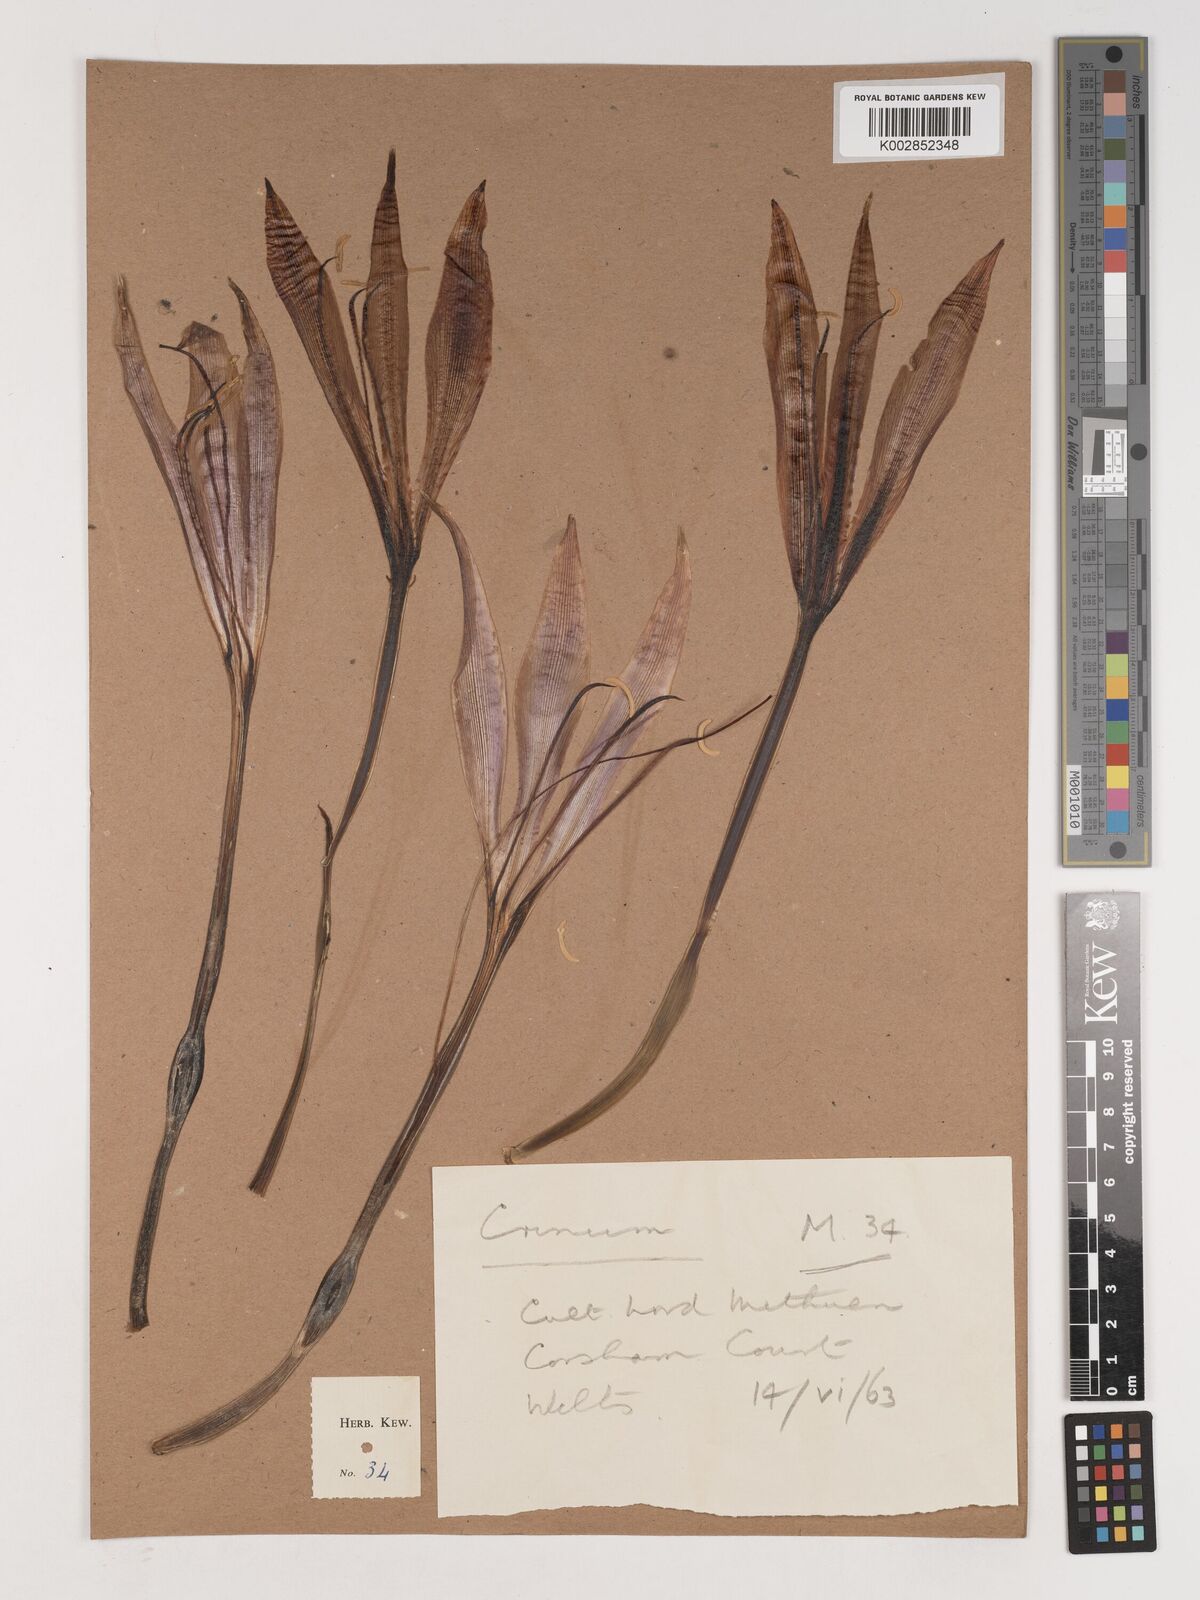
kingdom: Plantae
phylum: Tracheophyta
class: Liliopsida
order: Asparagales
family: Amaryllidaceae
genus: Crinum
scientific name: Crinum
